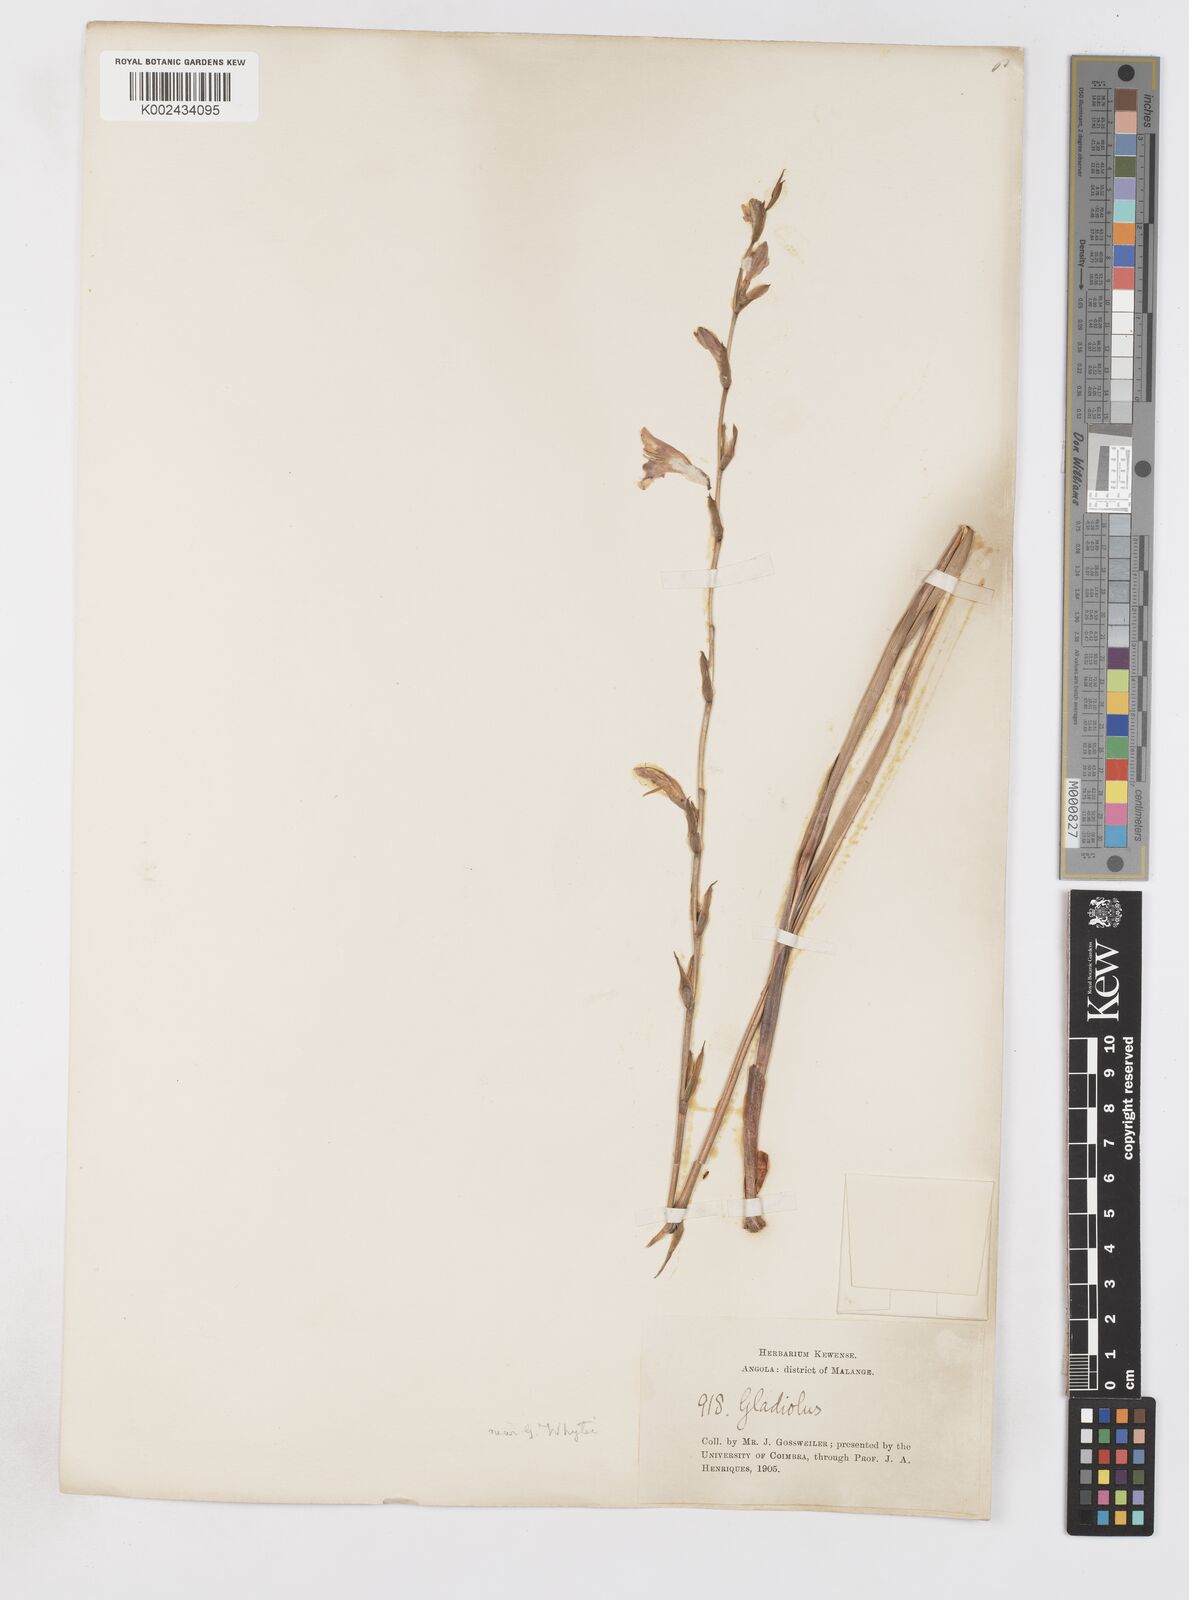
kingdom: Plantae
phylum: Tracheophyta
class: Liliopsida
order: Asparagales
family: Iridaceae
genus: Gladiolus
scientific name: Gladiolus atropurpureus
